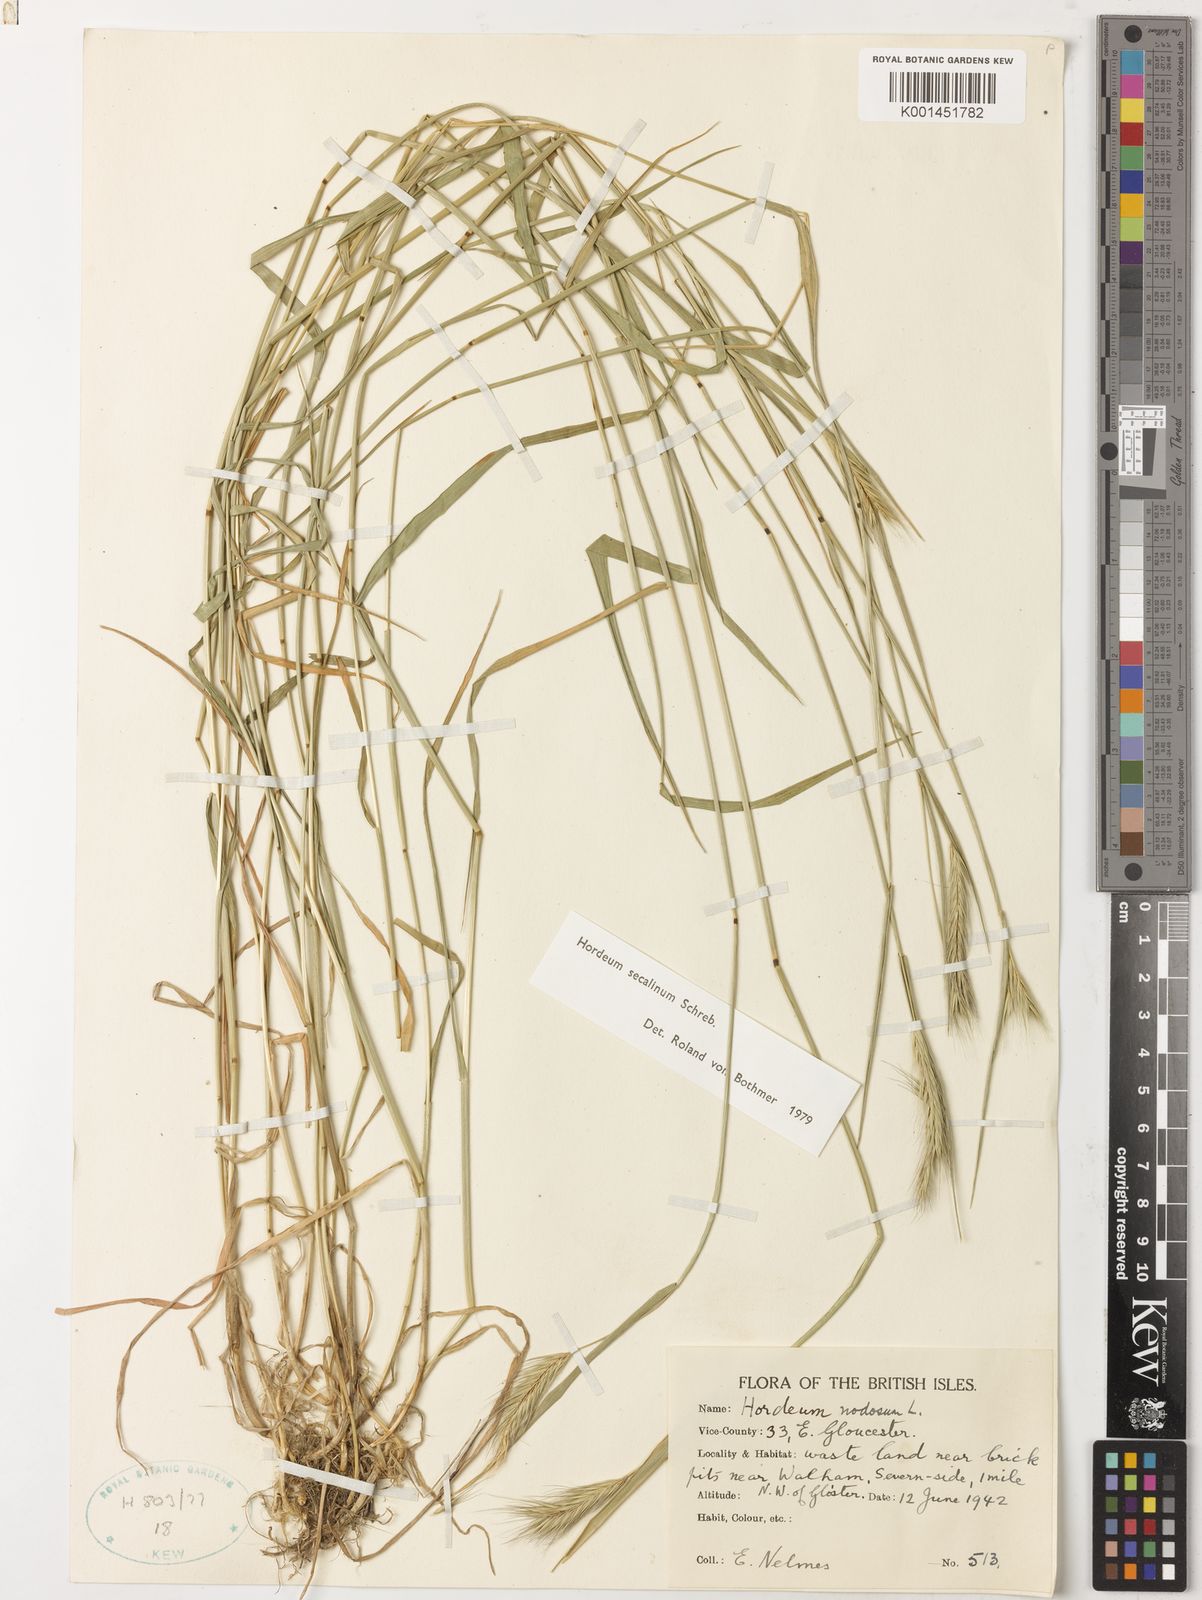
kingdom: Plantae
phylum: Tracheophyta
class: Liliopsida
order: Poales
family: Poaceae
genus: Hordeum
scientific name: Hordeum secalinum
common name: Meadow barley
